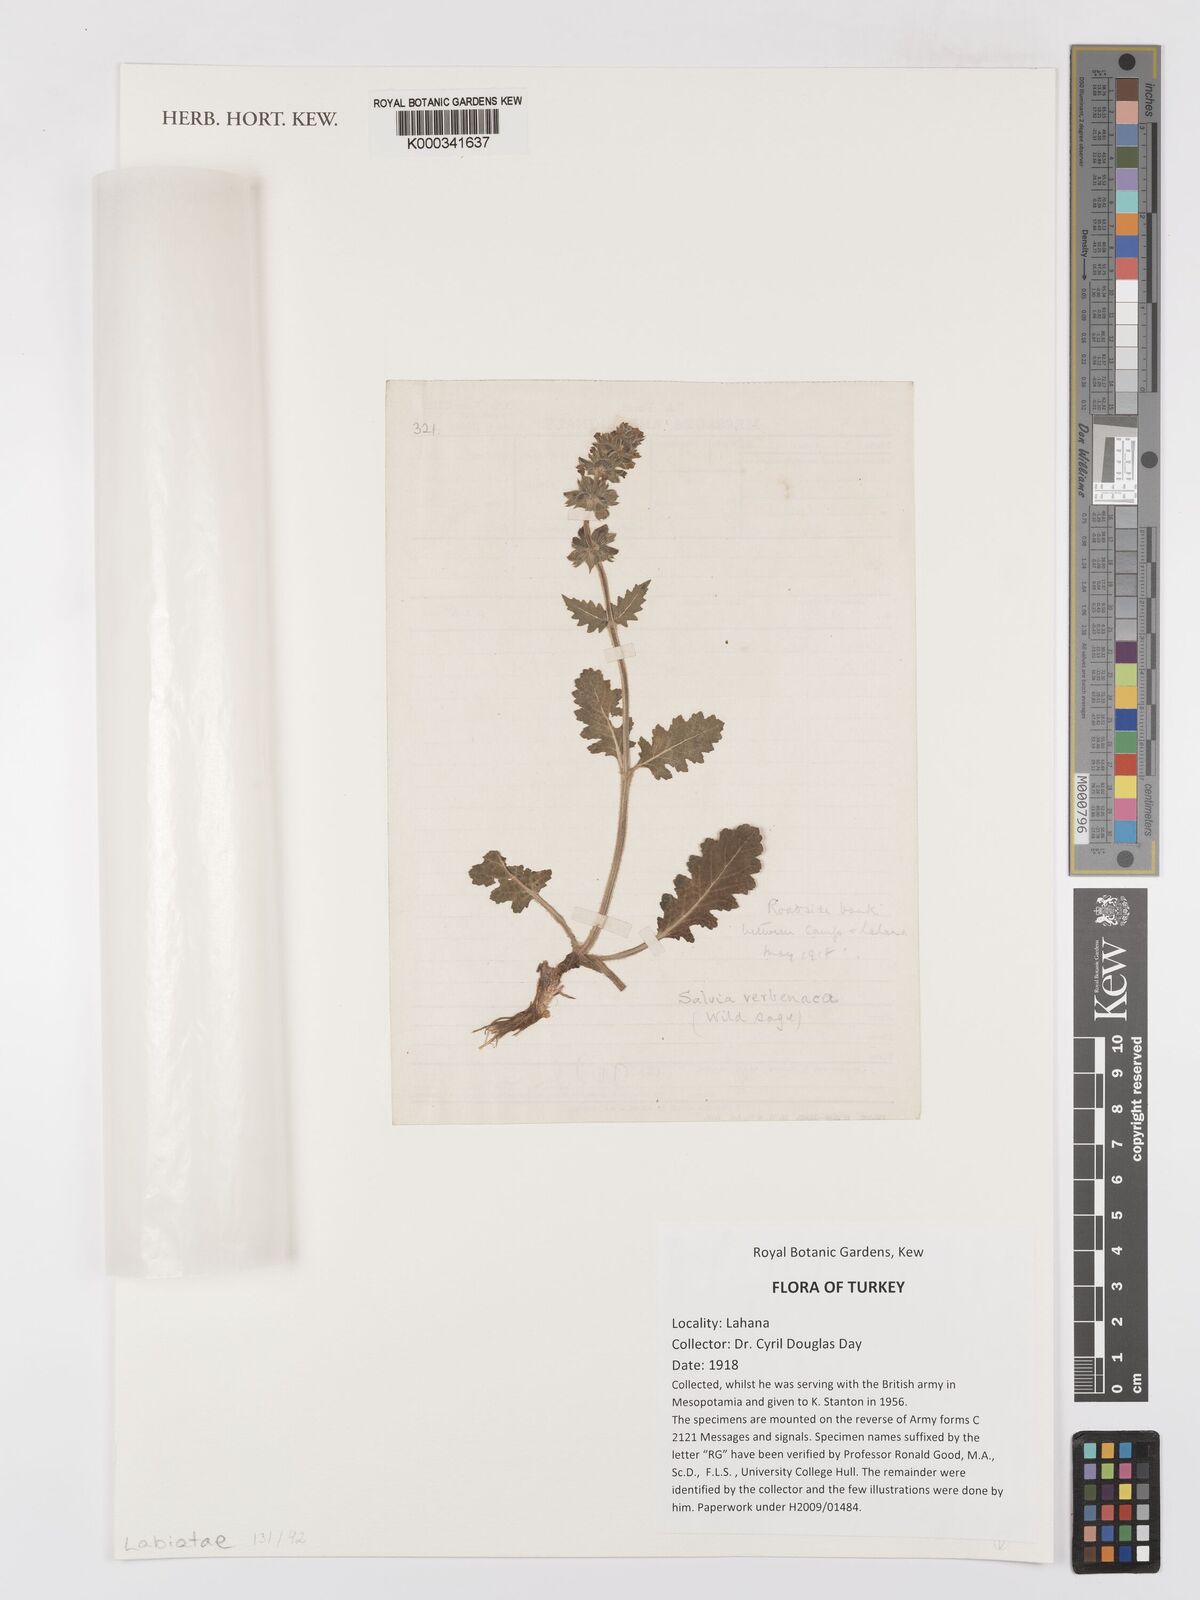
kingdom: Plantae
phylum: Tracheophyta
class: Magnoliopsida
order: Lamiales
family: Lamiaceae
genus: Salvia
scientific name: Salvia verbenaca
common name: Wild clary
